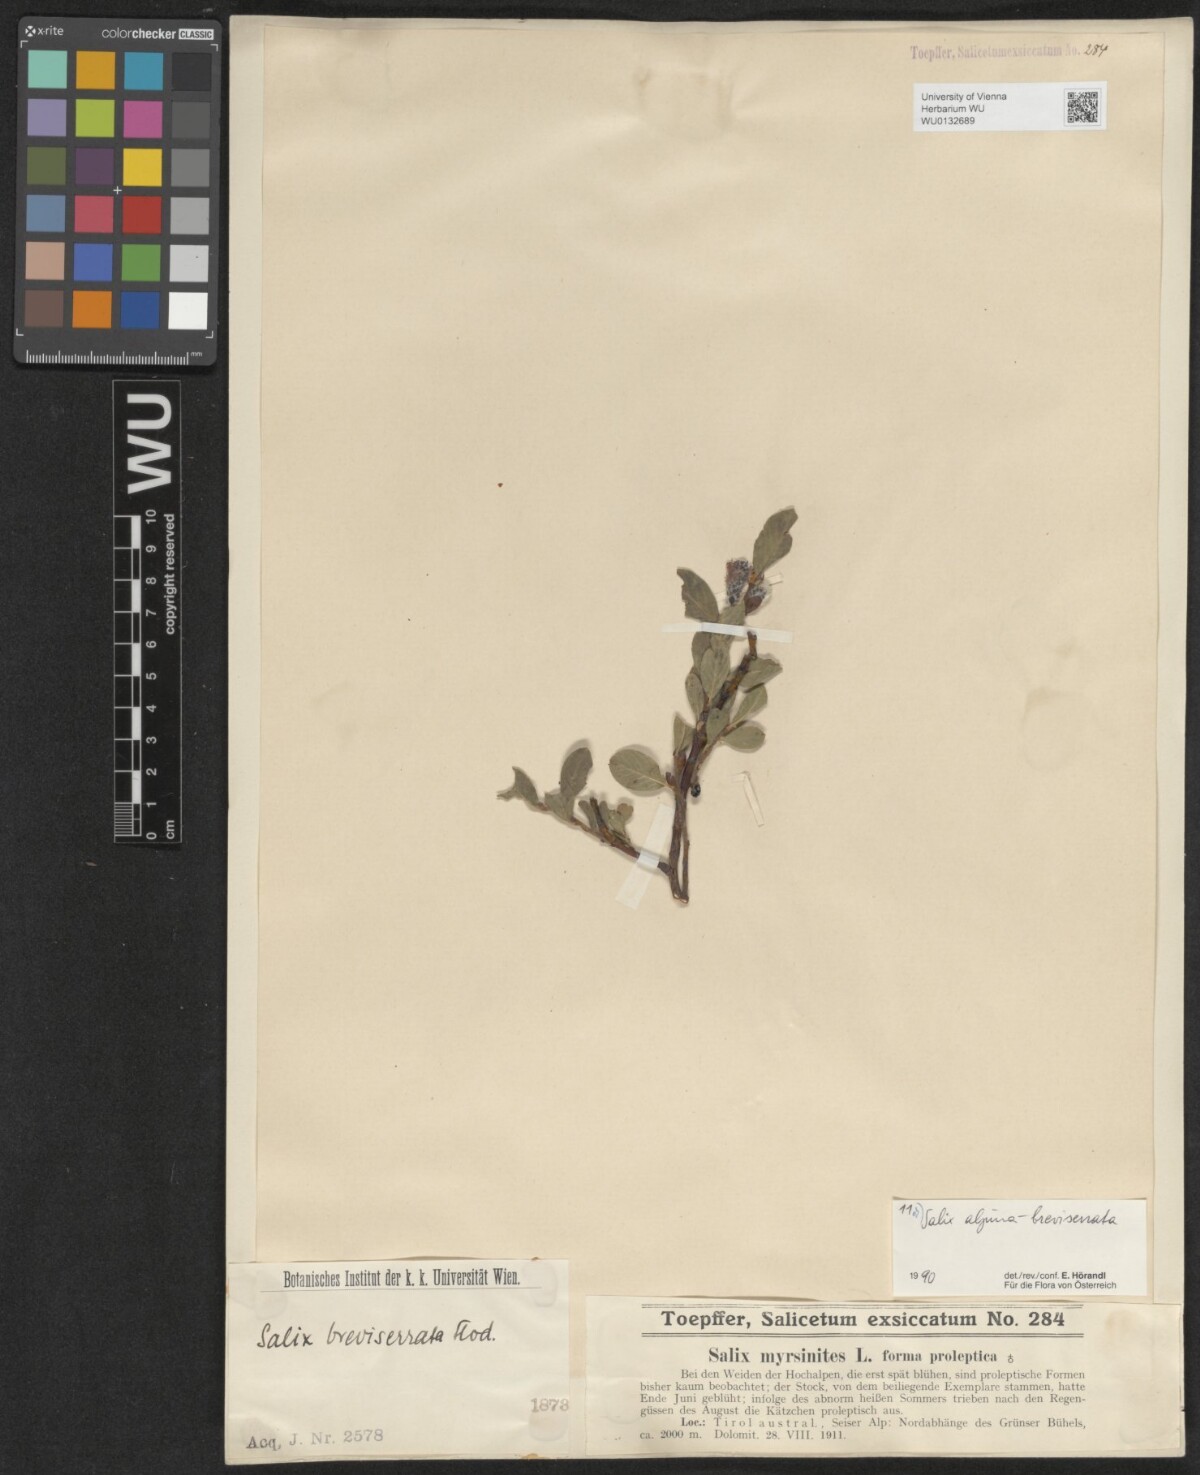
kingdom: Plantae
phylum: Tracheophyta
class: Magnoliopsida
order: Malpighiales
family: Salicaceae
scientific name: Salicaceae
